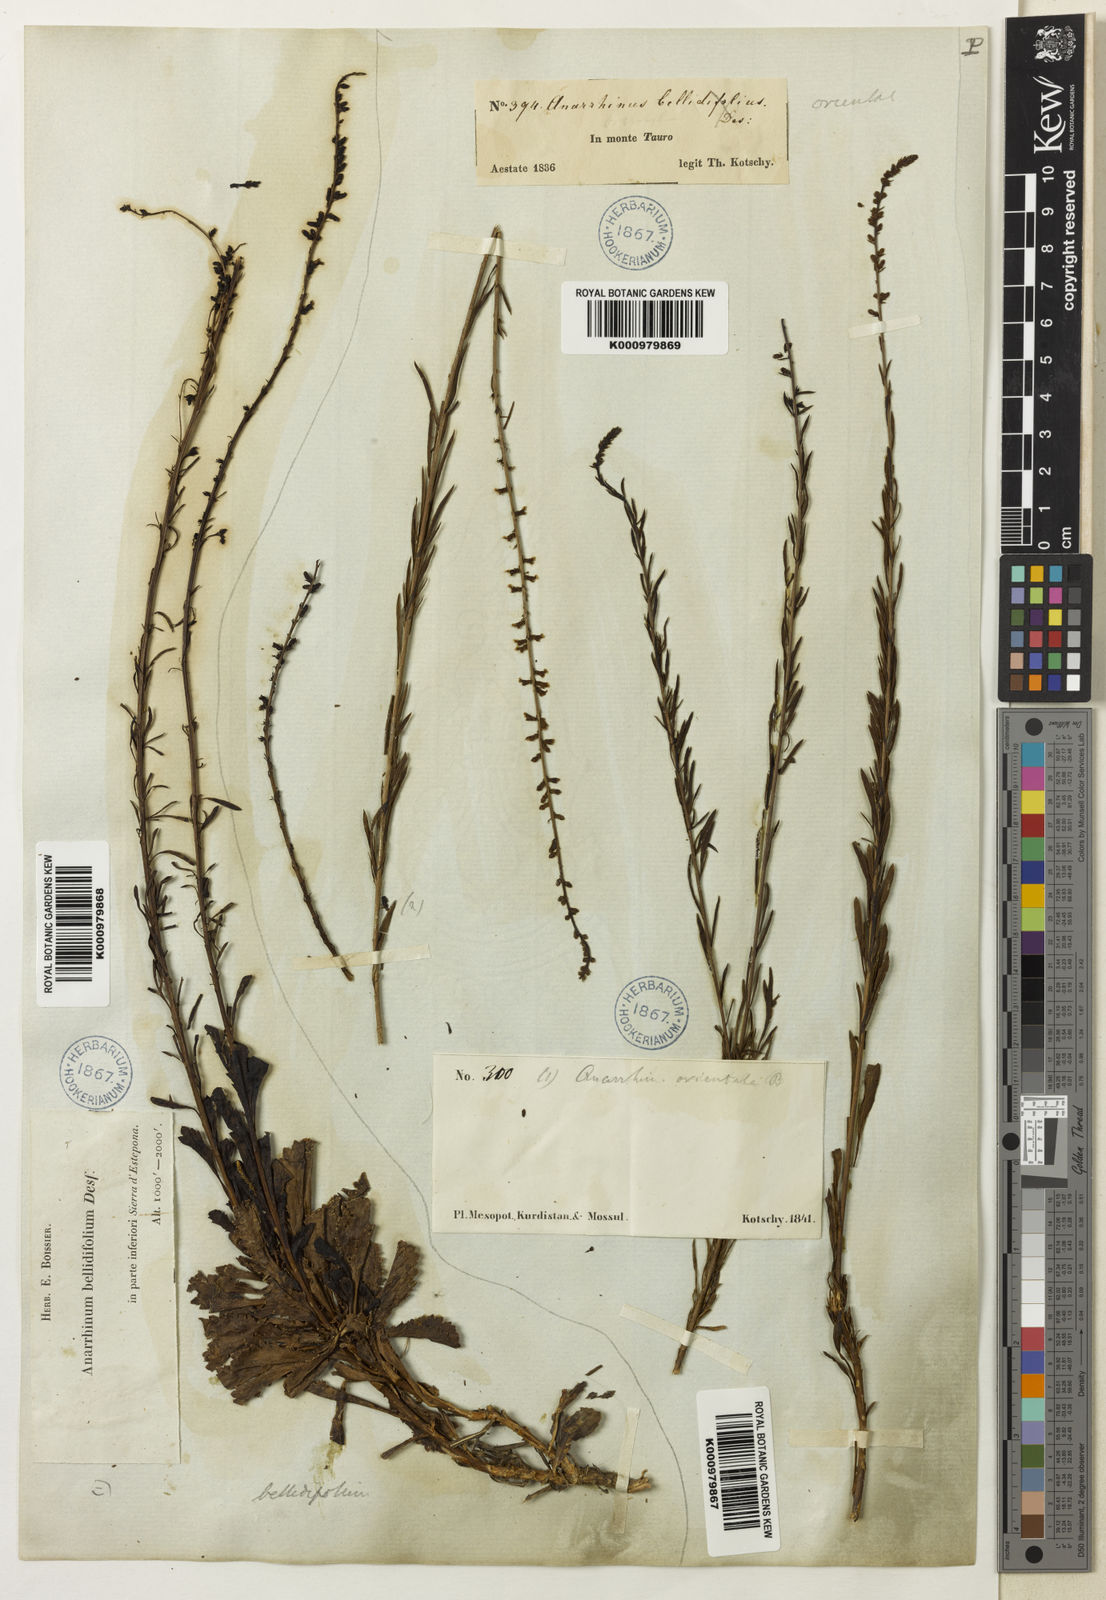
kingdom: Plantae
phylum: Tracheophyta
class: Magnoliopsida
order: Lamiales
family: Plantaginaceae
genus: Anarrhinum
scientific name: Anarrhinum forskaohlii
